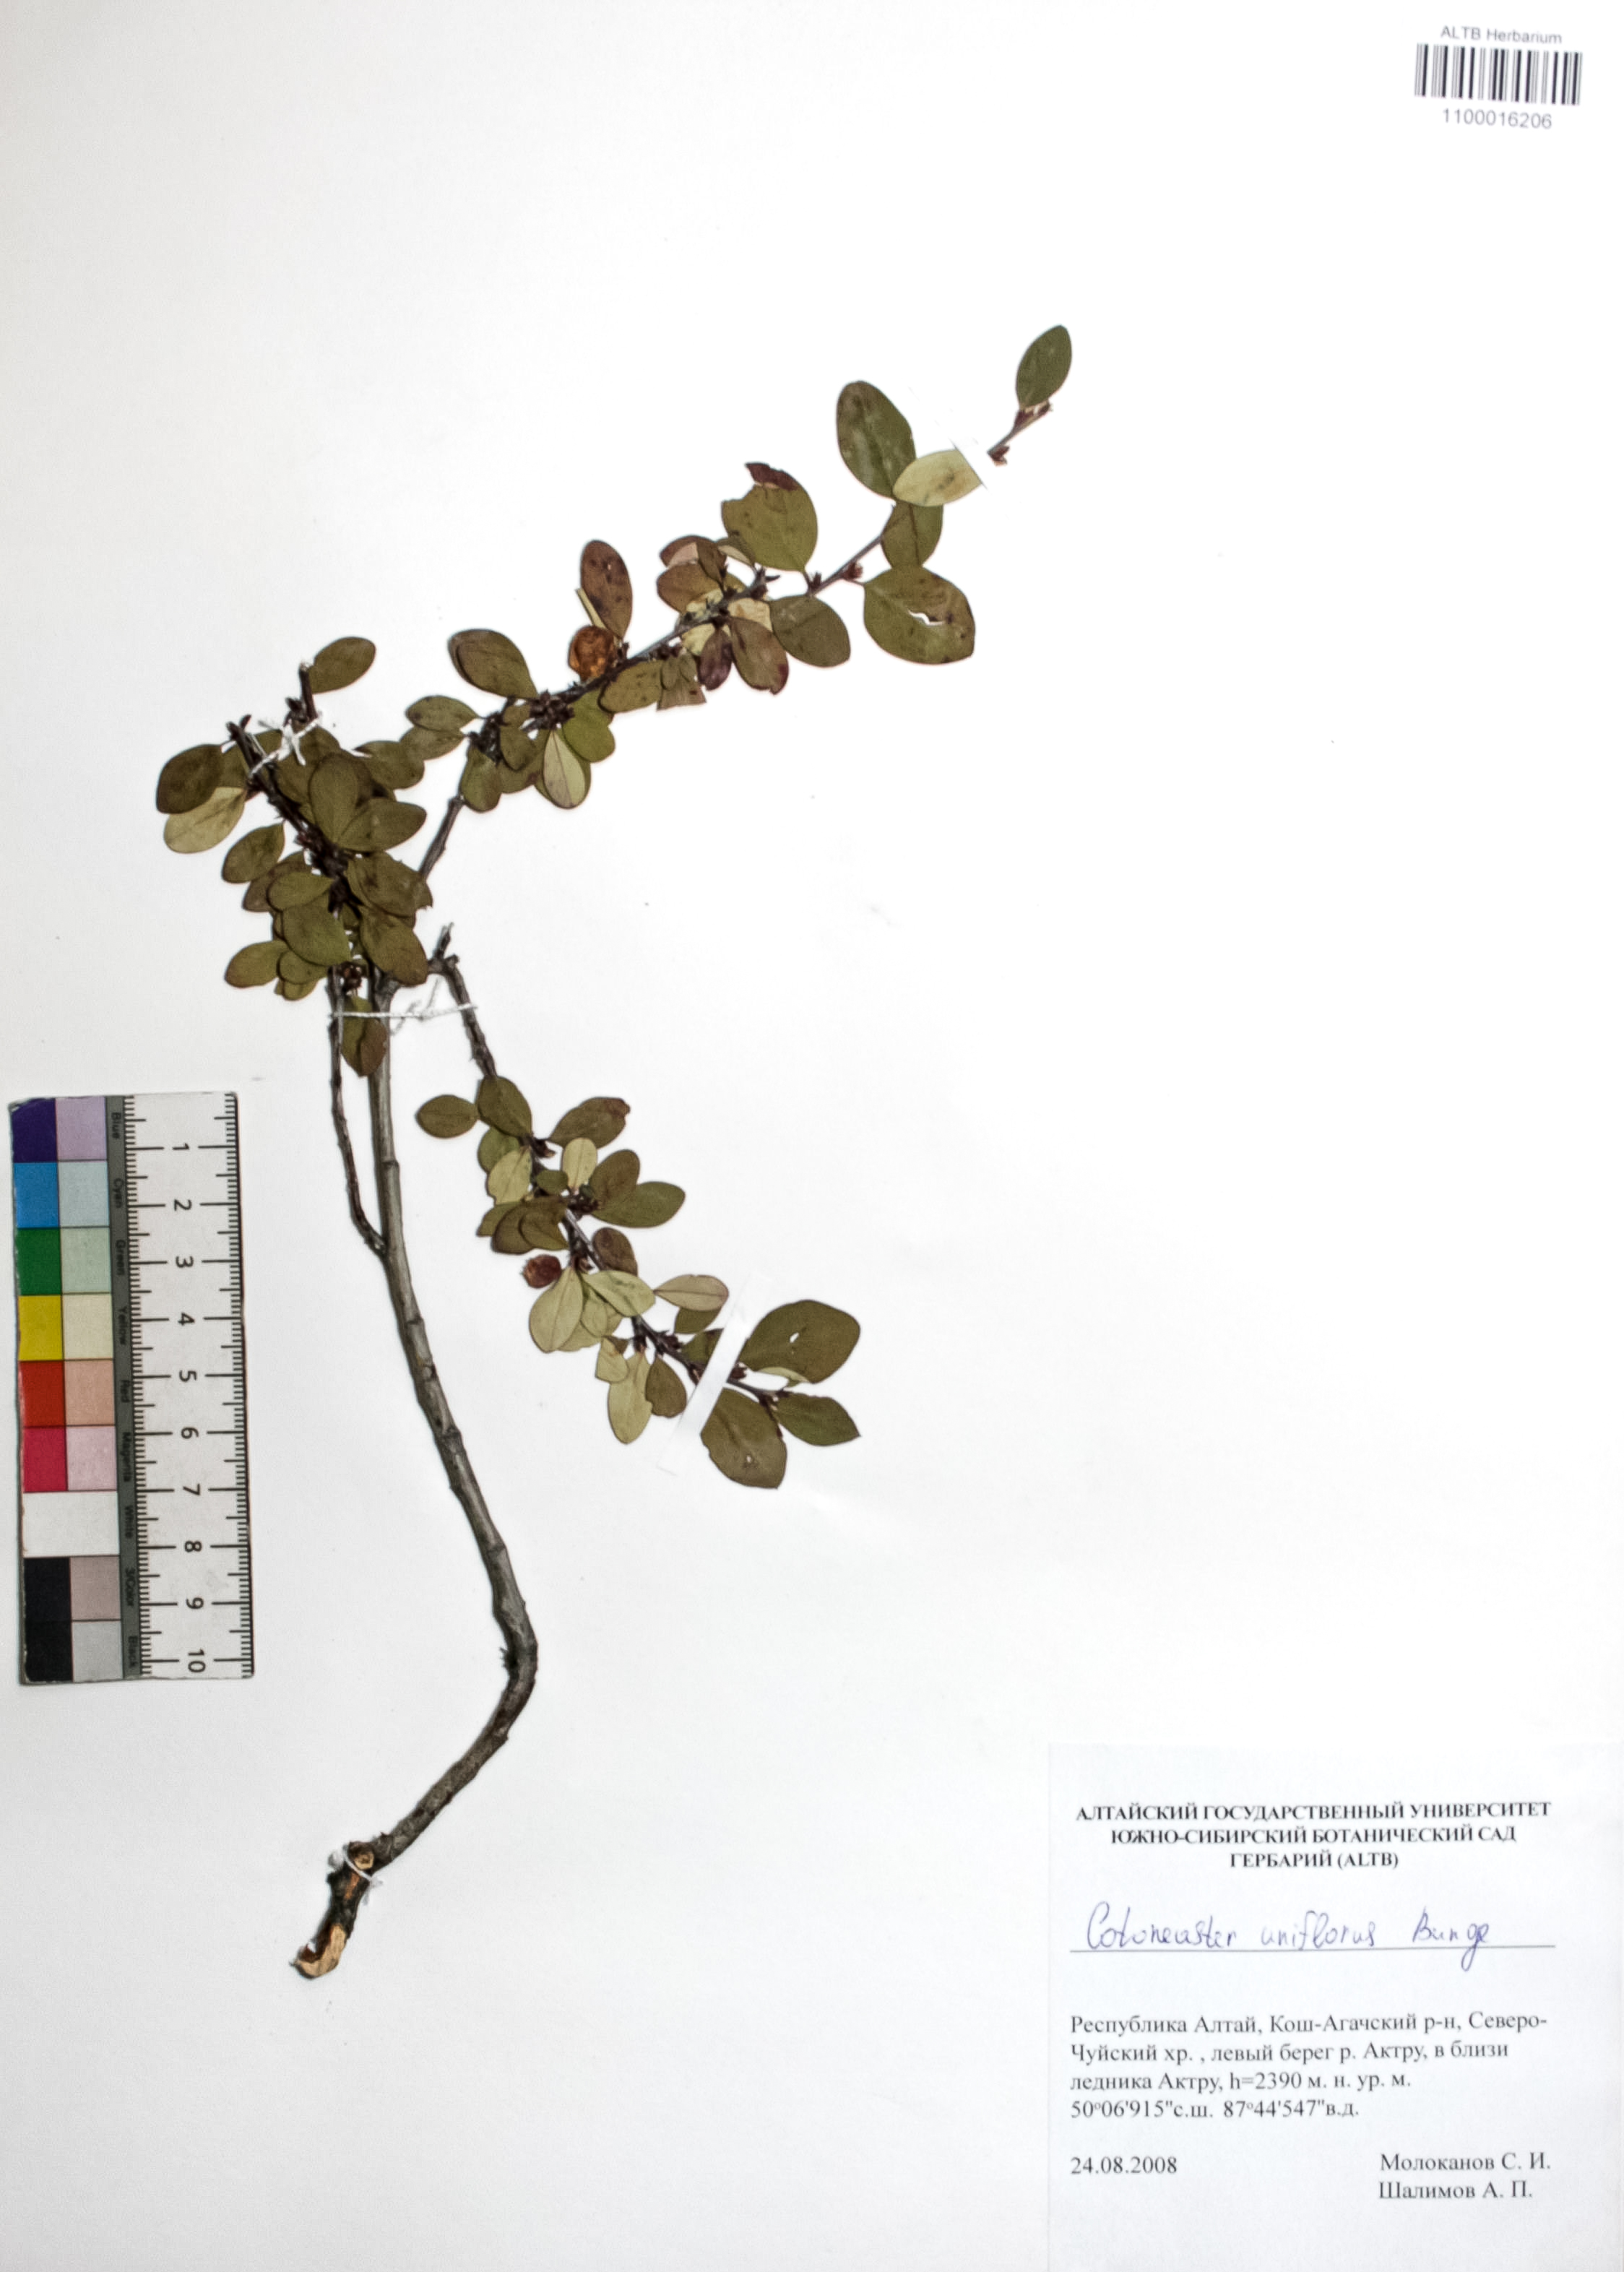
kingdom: Plantae
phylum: Tracheophyta
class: Magnoliopsida
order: Rosales
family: Rosaceae
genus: Cotoneaster
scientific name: Cotoneaster uniflorus
